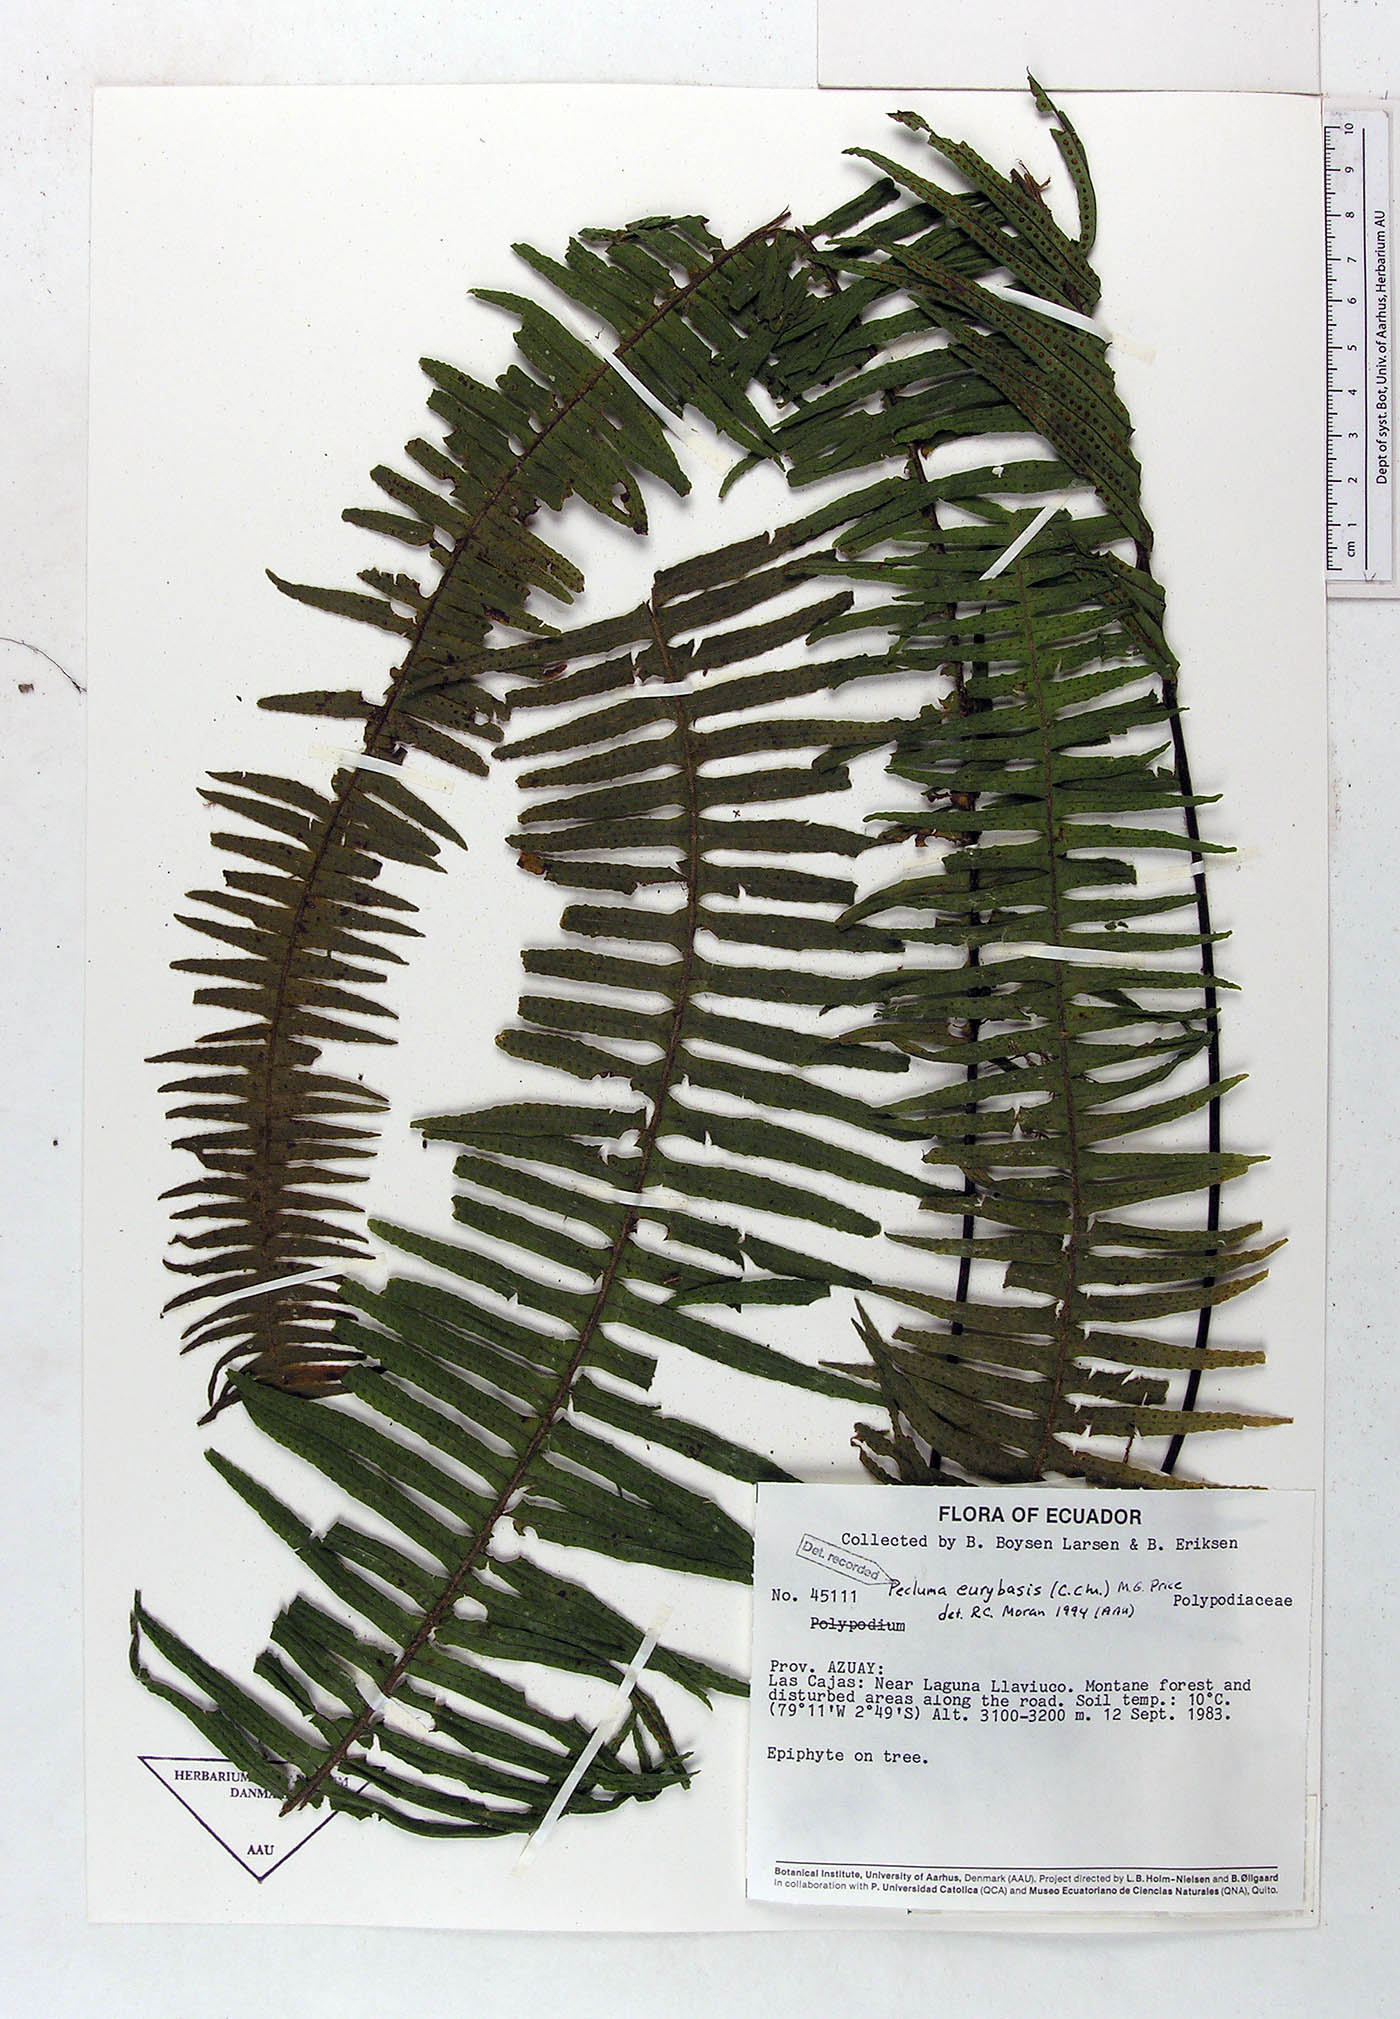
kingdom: Plantae
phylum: Tracheophyta
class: Polypodiopsida
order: Polypodiales
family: Polypodiaceae
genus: Pecluma
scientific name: Pecluma eurybasis
